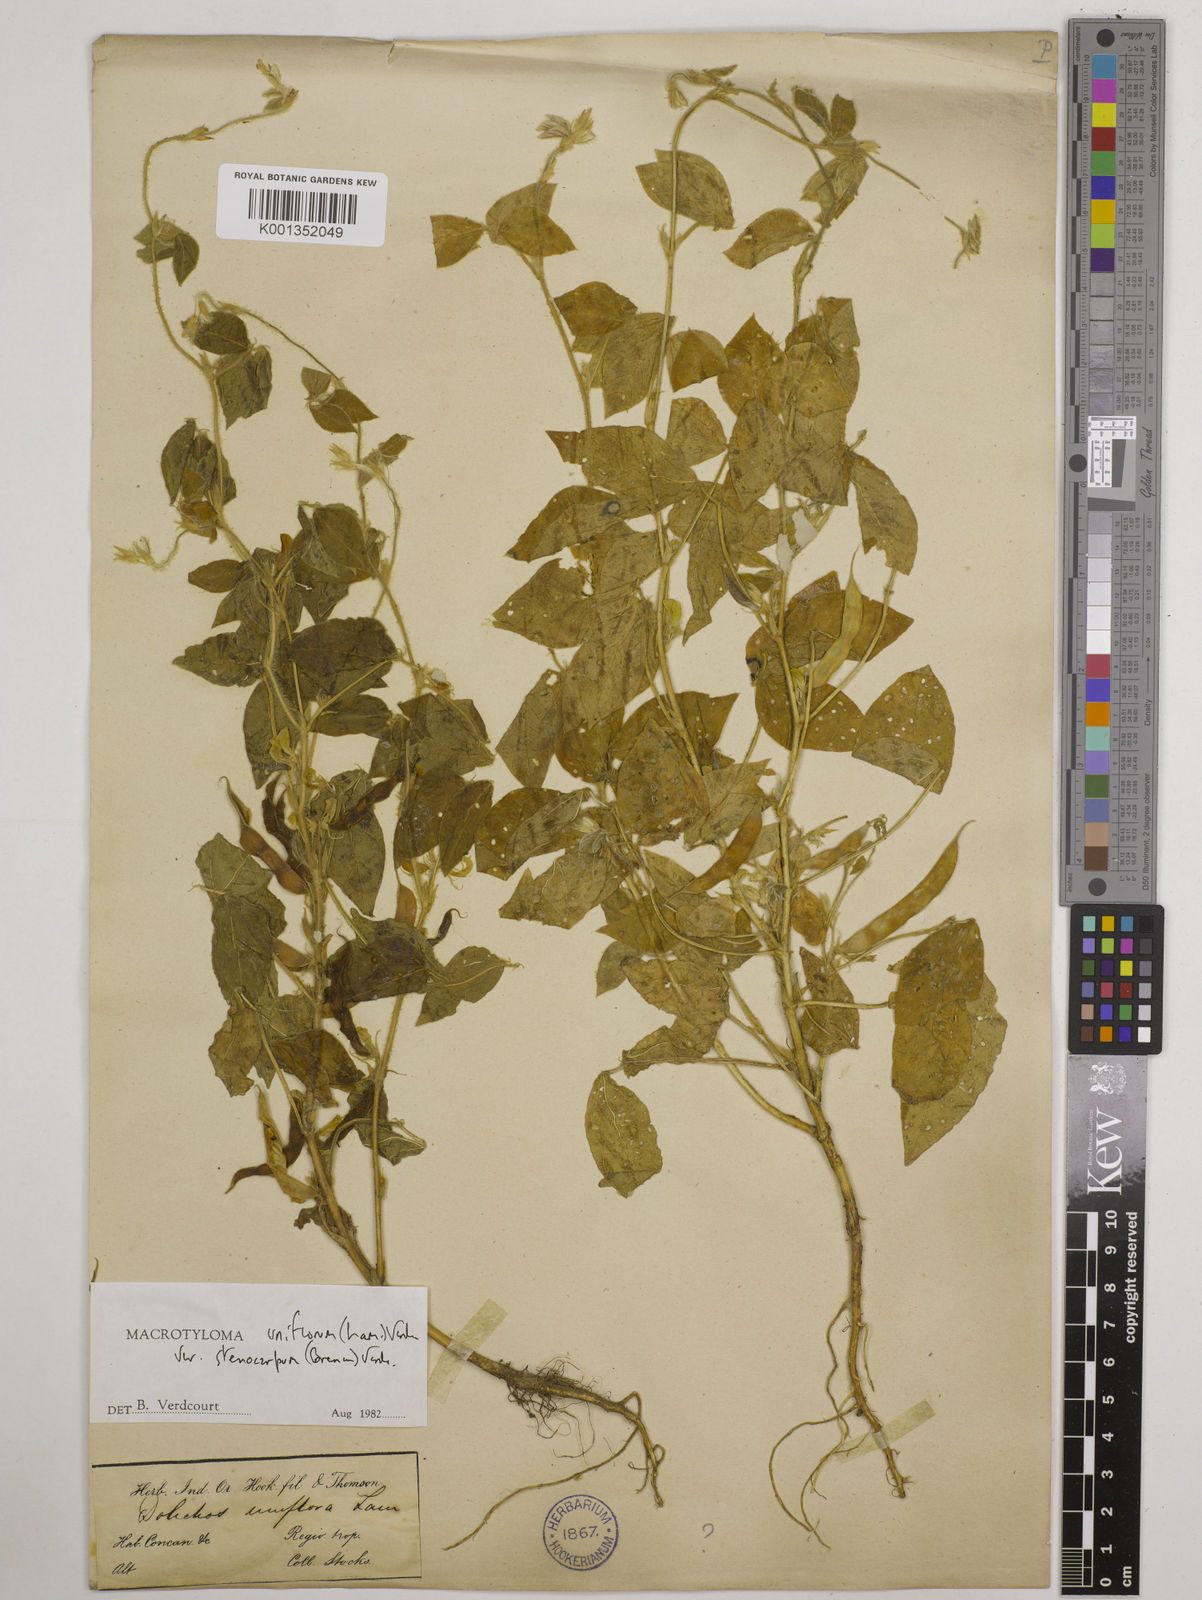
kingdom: Plantae
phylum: Tracheophyta
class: Magnoliopsida
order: Fabales
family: Fabaceae
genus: Macrotyloma
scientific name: Macrotyloma
